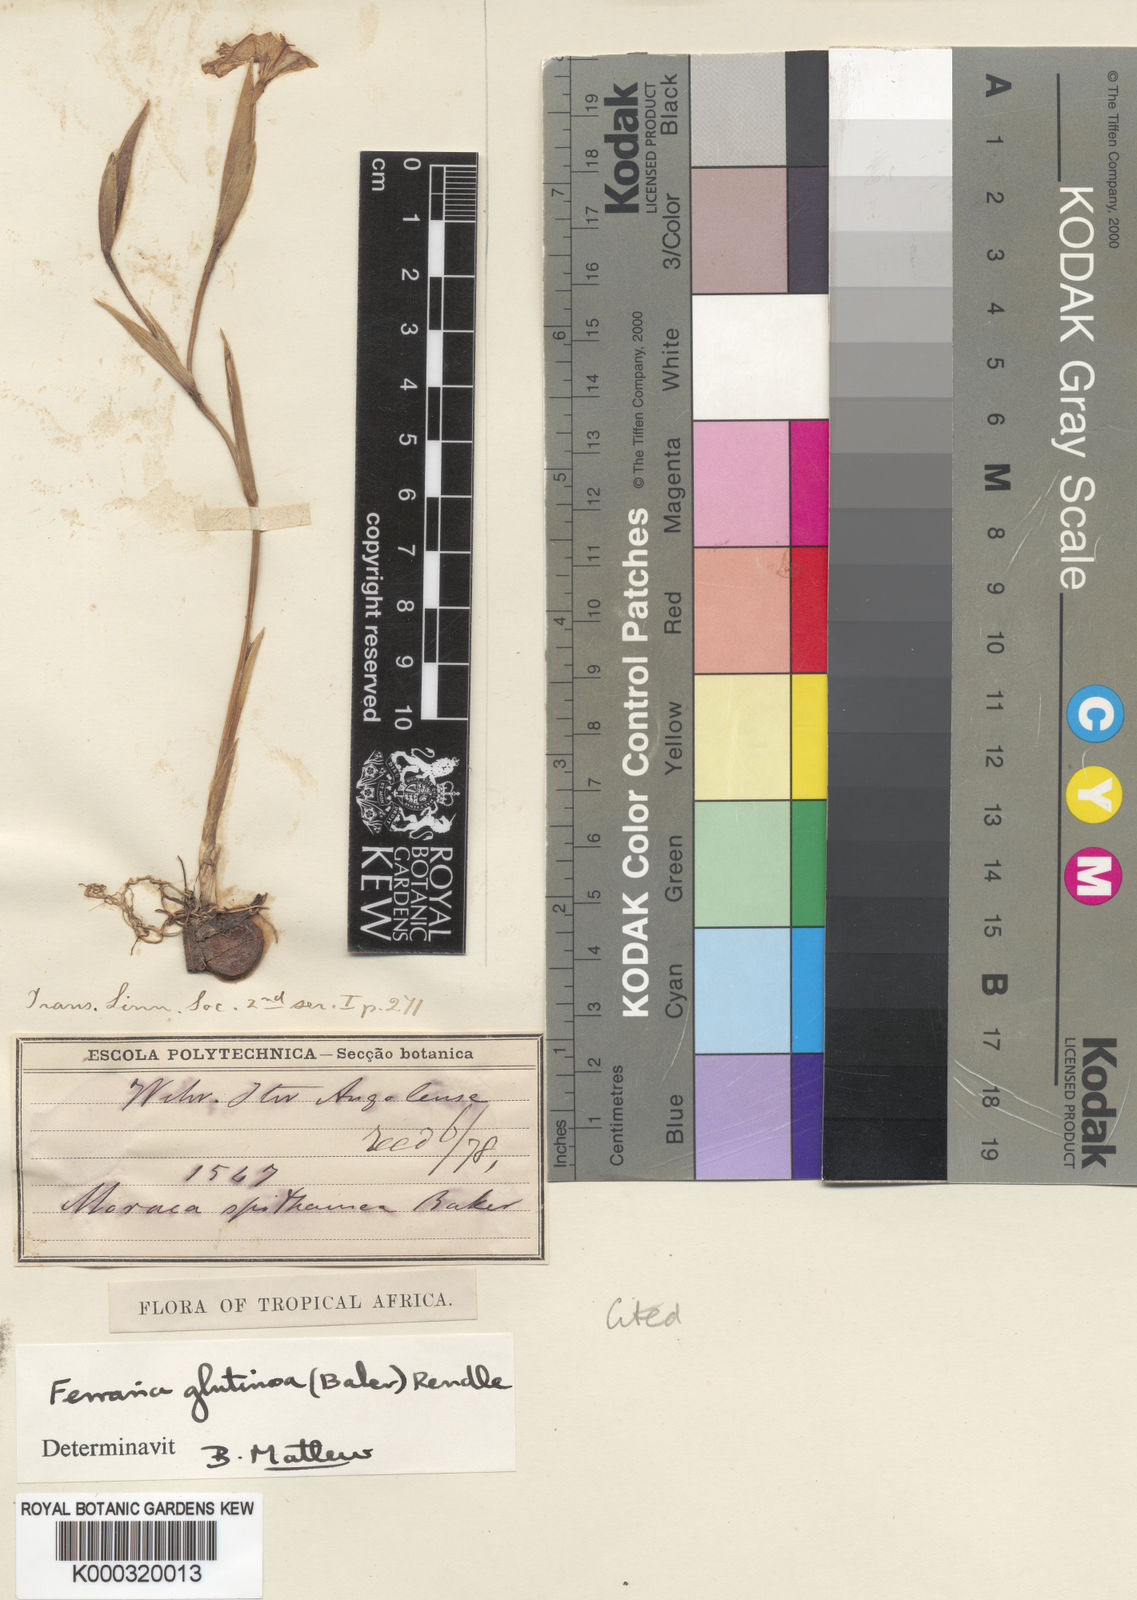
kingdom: Plantae
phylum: Tracheophyta
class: Liliopsida
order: Asparagales
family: Iridaceae
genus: Ferraria
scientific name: Ferraria spithamaea
